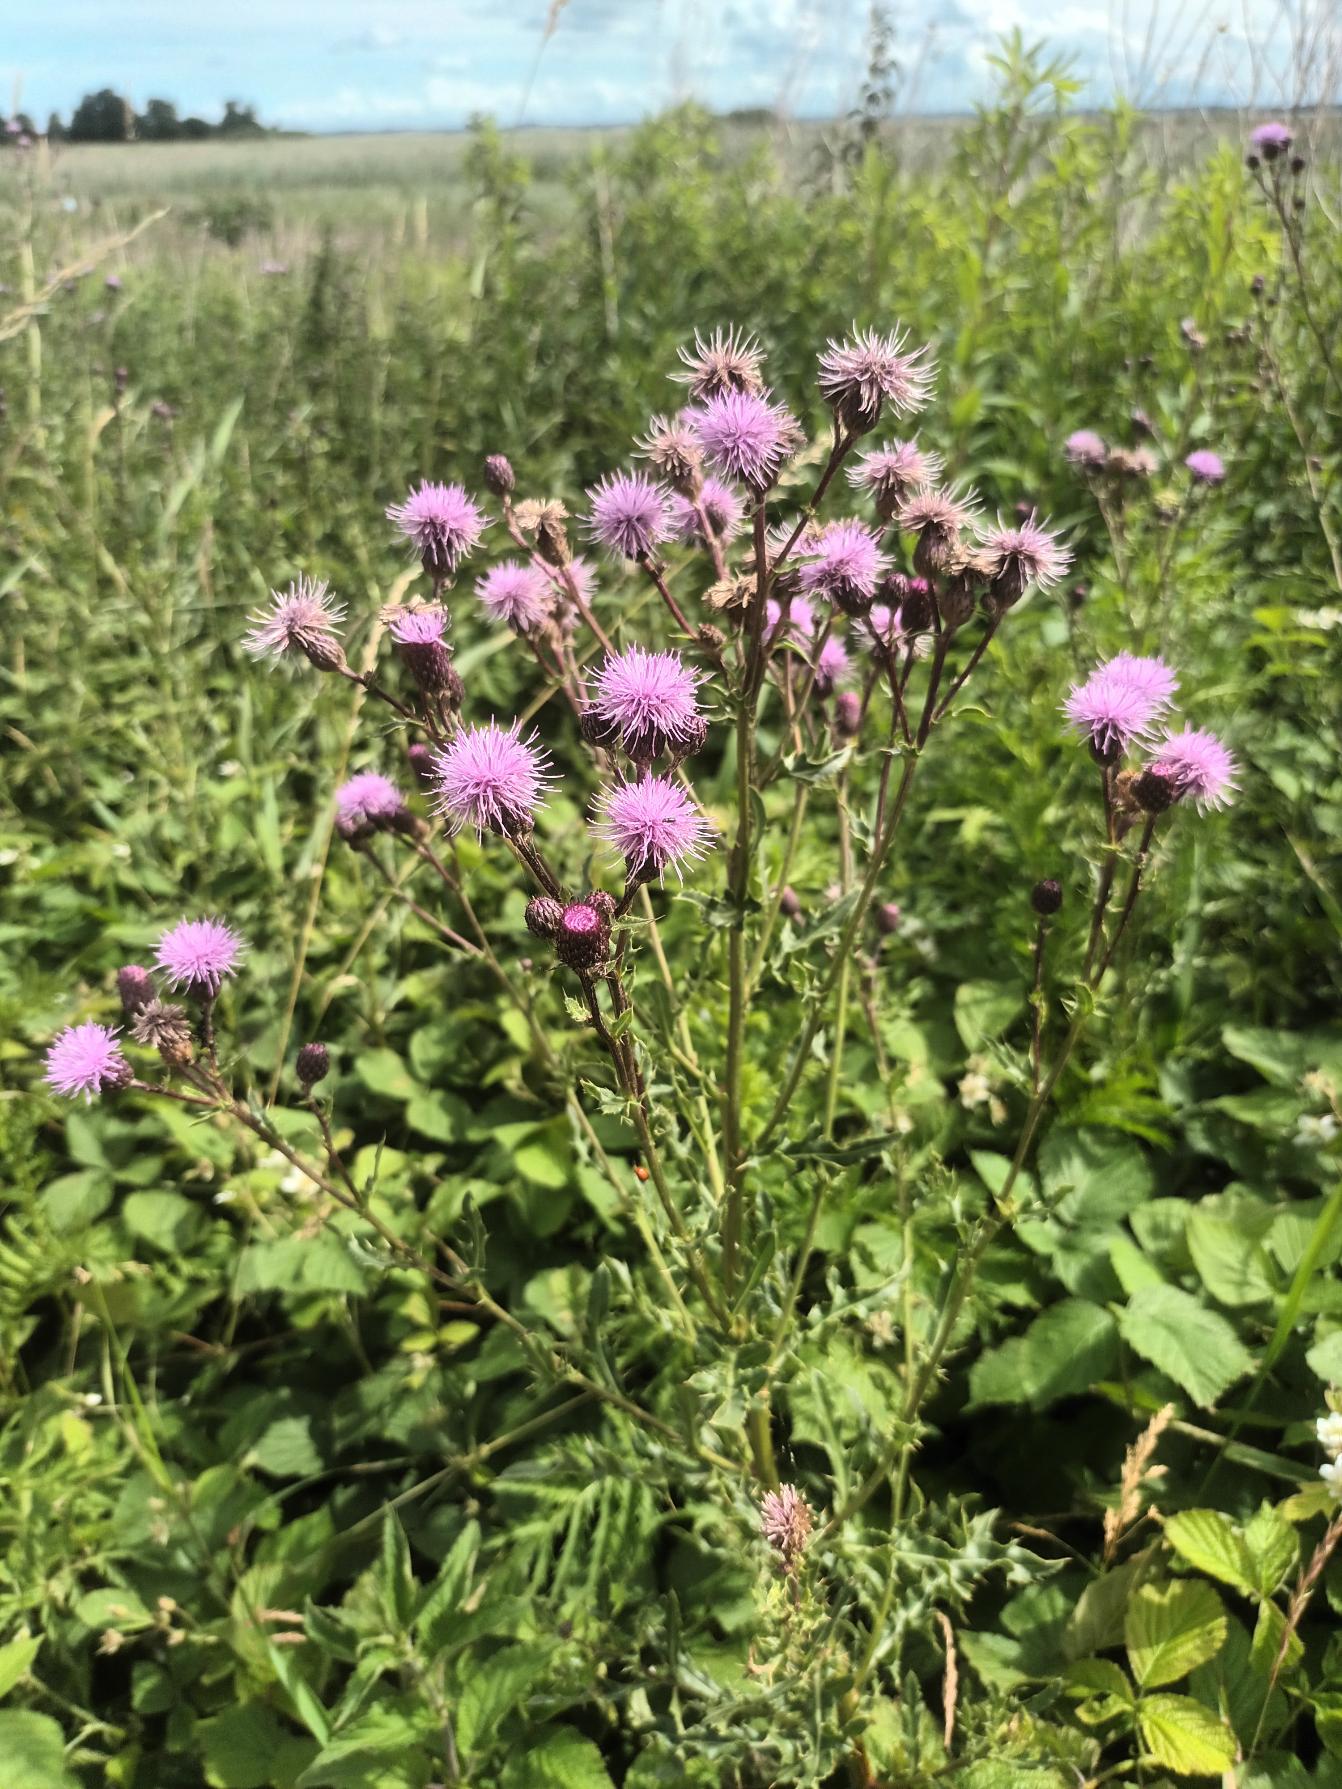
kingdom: Plantae
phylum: Tracheophyta
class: Magnoliopsida
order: Asterales
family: Asteraceae
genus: Cirsium
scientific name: Cirsium arvense
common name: Ager-tidsel
